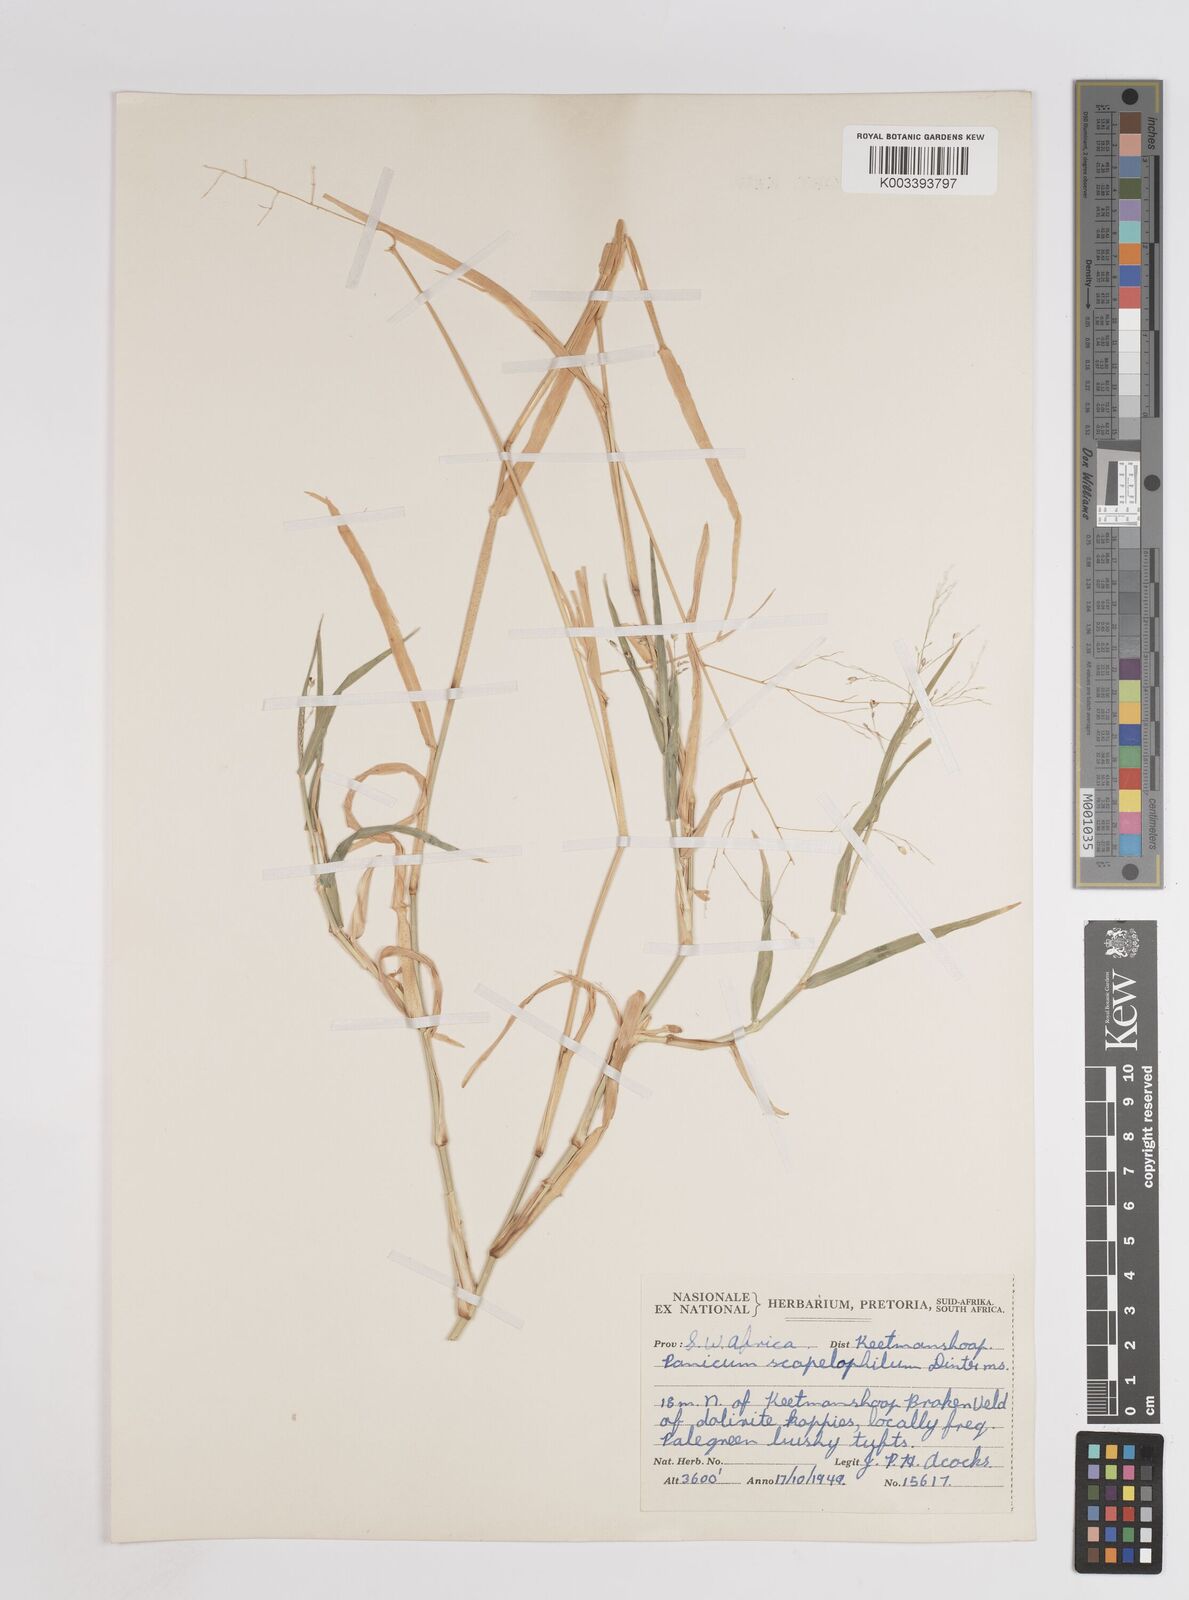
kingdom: Plantae
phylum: Tracheophyta
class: Liliopsida
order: Poales
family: Poaceae
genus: Panicum
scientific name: Panicum
